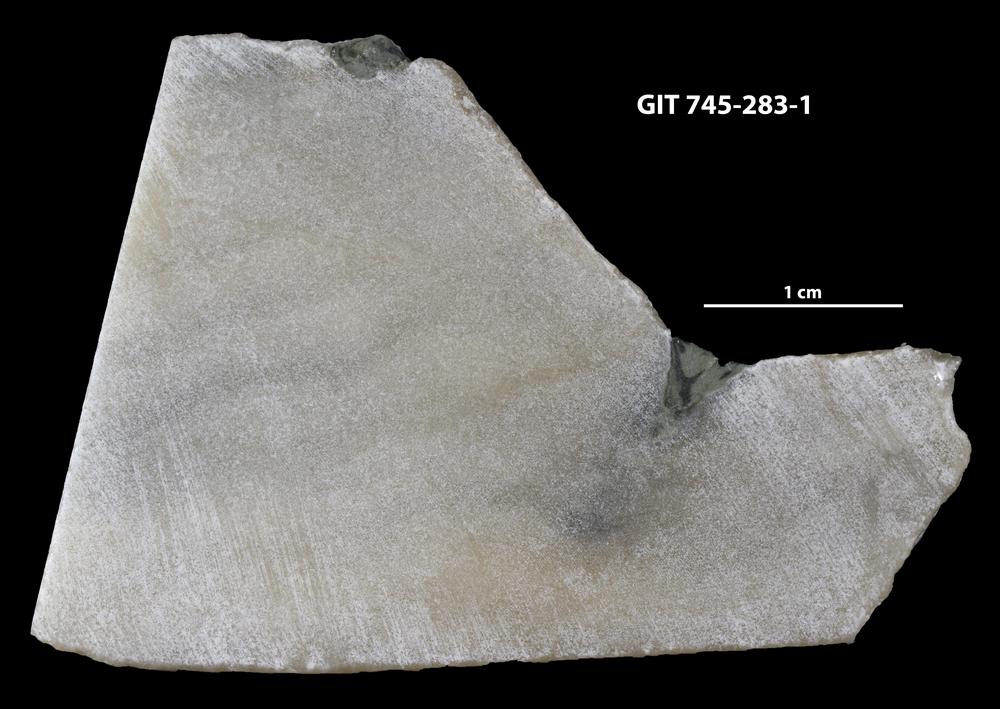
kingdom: Animalia
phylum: Porifera
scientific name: Porifera
